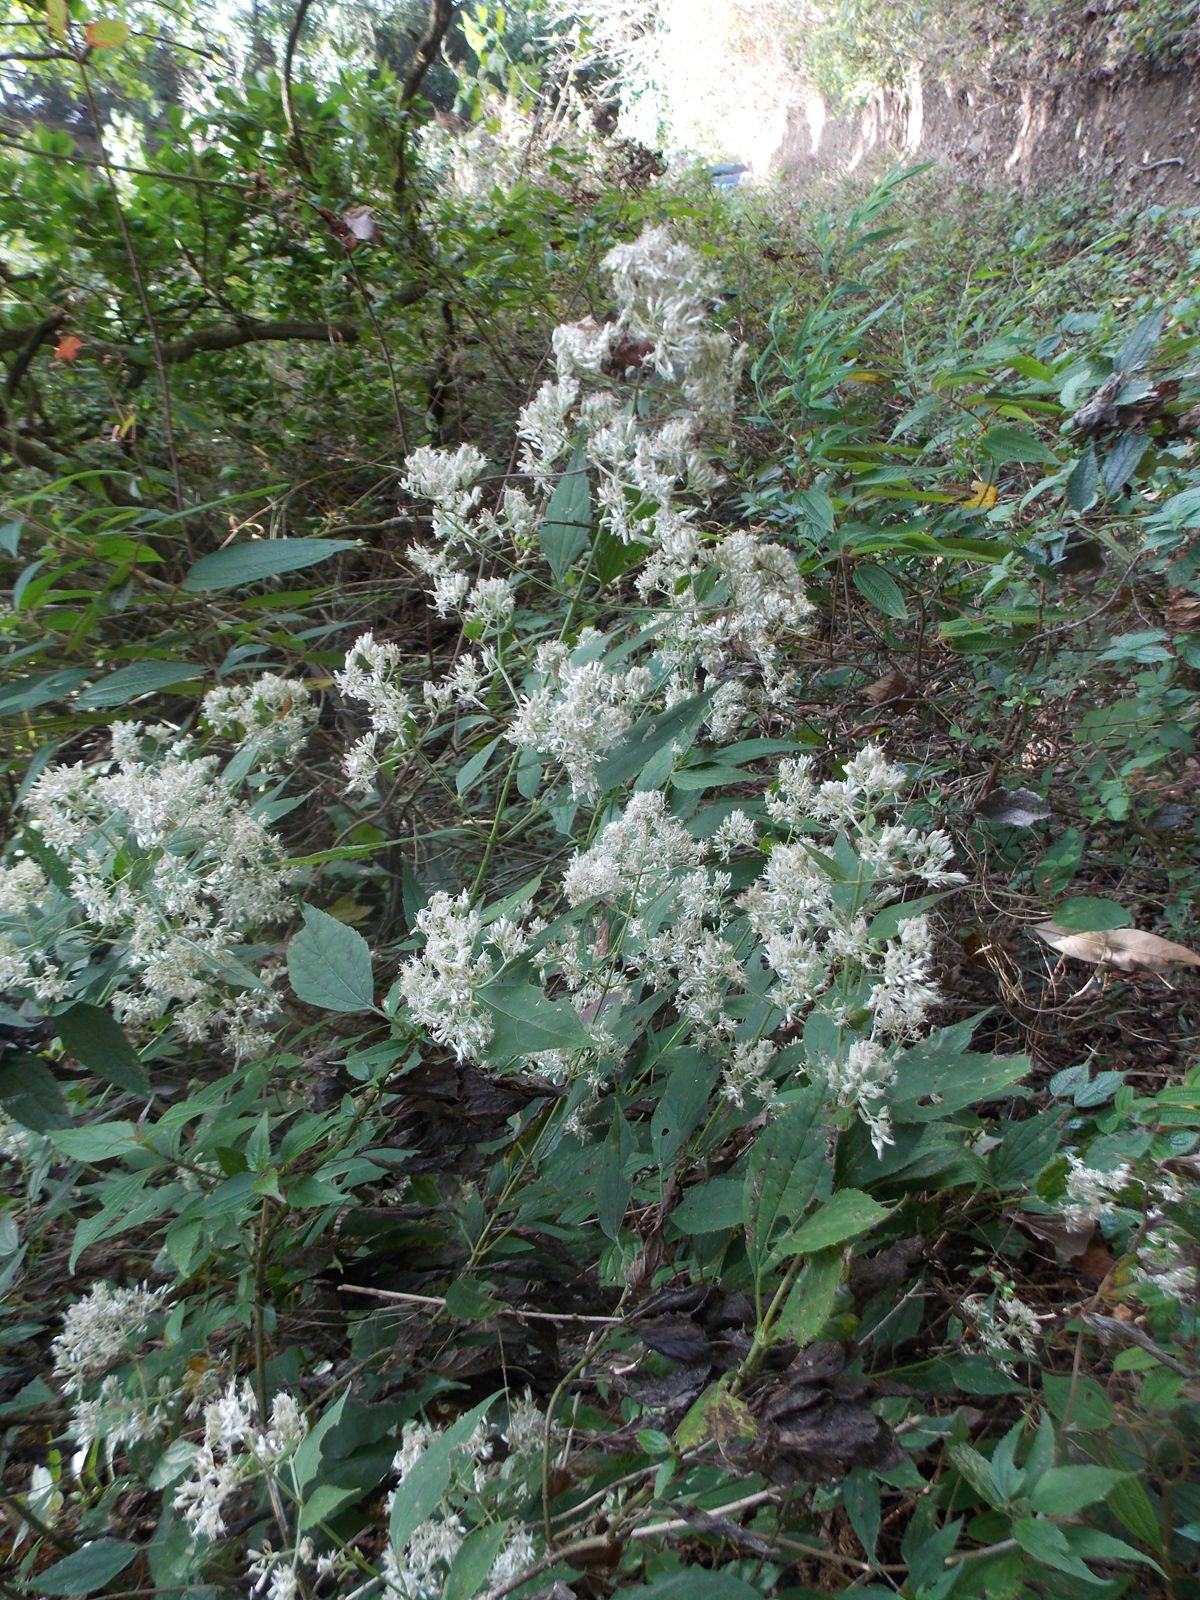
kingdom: Plantae
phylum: Tracheophyta
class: Magnoliopsida
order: Asterales
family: Asteraceae
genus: Fleischmanniopsis
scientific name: Fleischmanniopsis leucocephala
